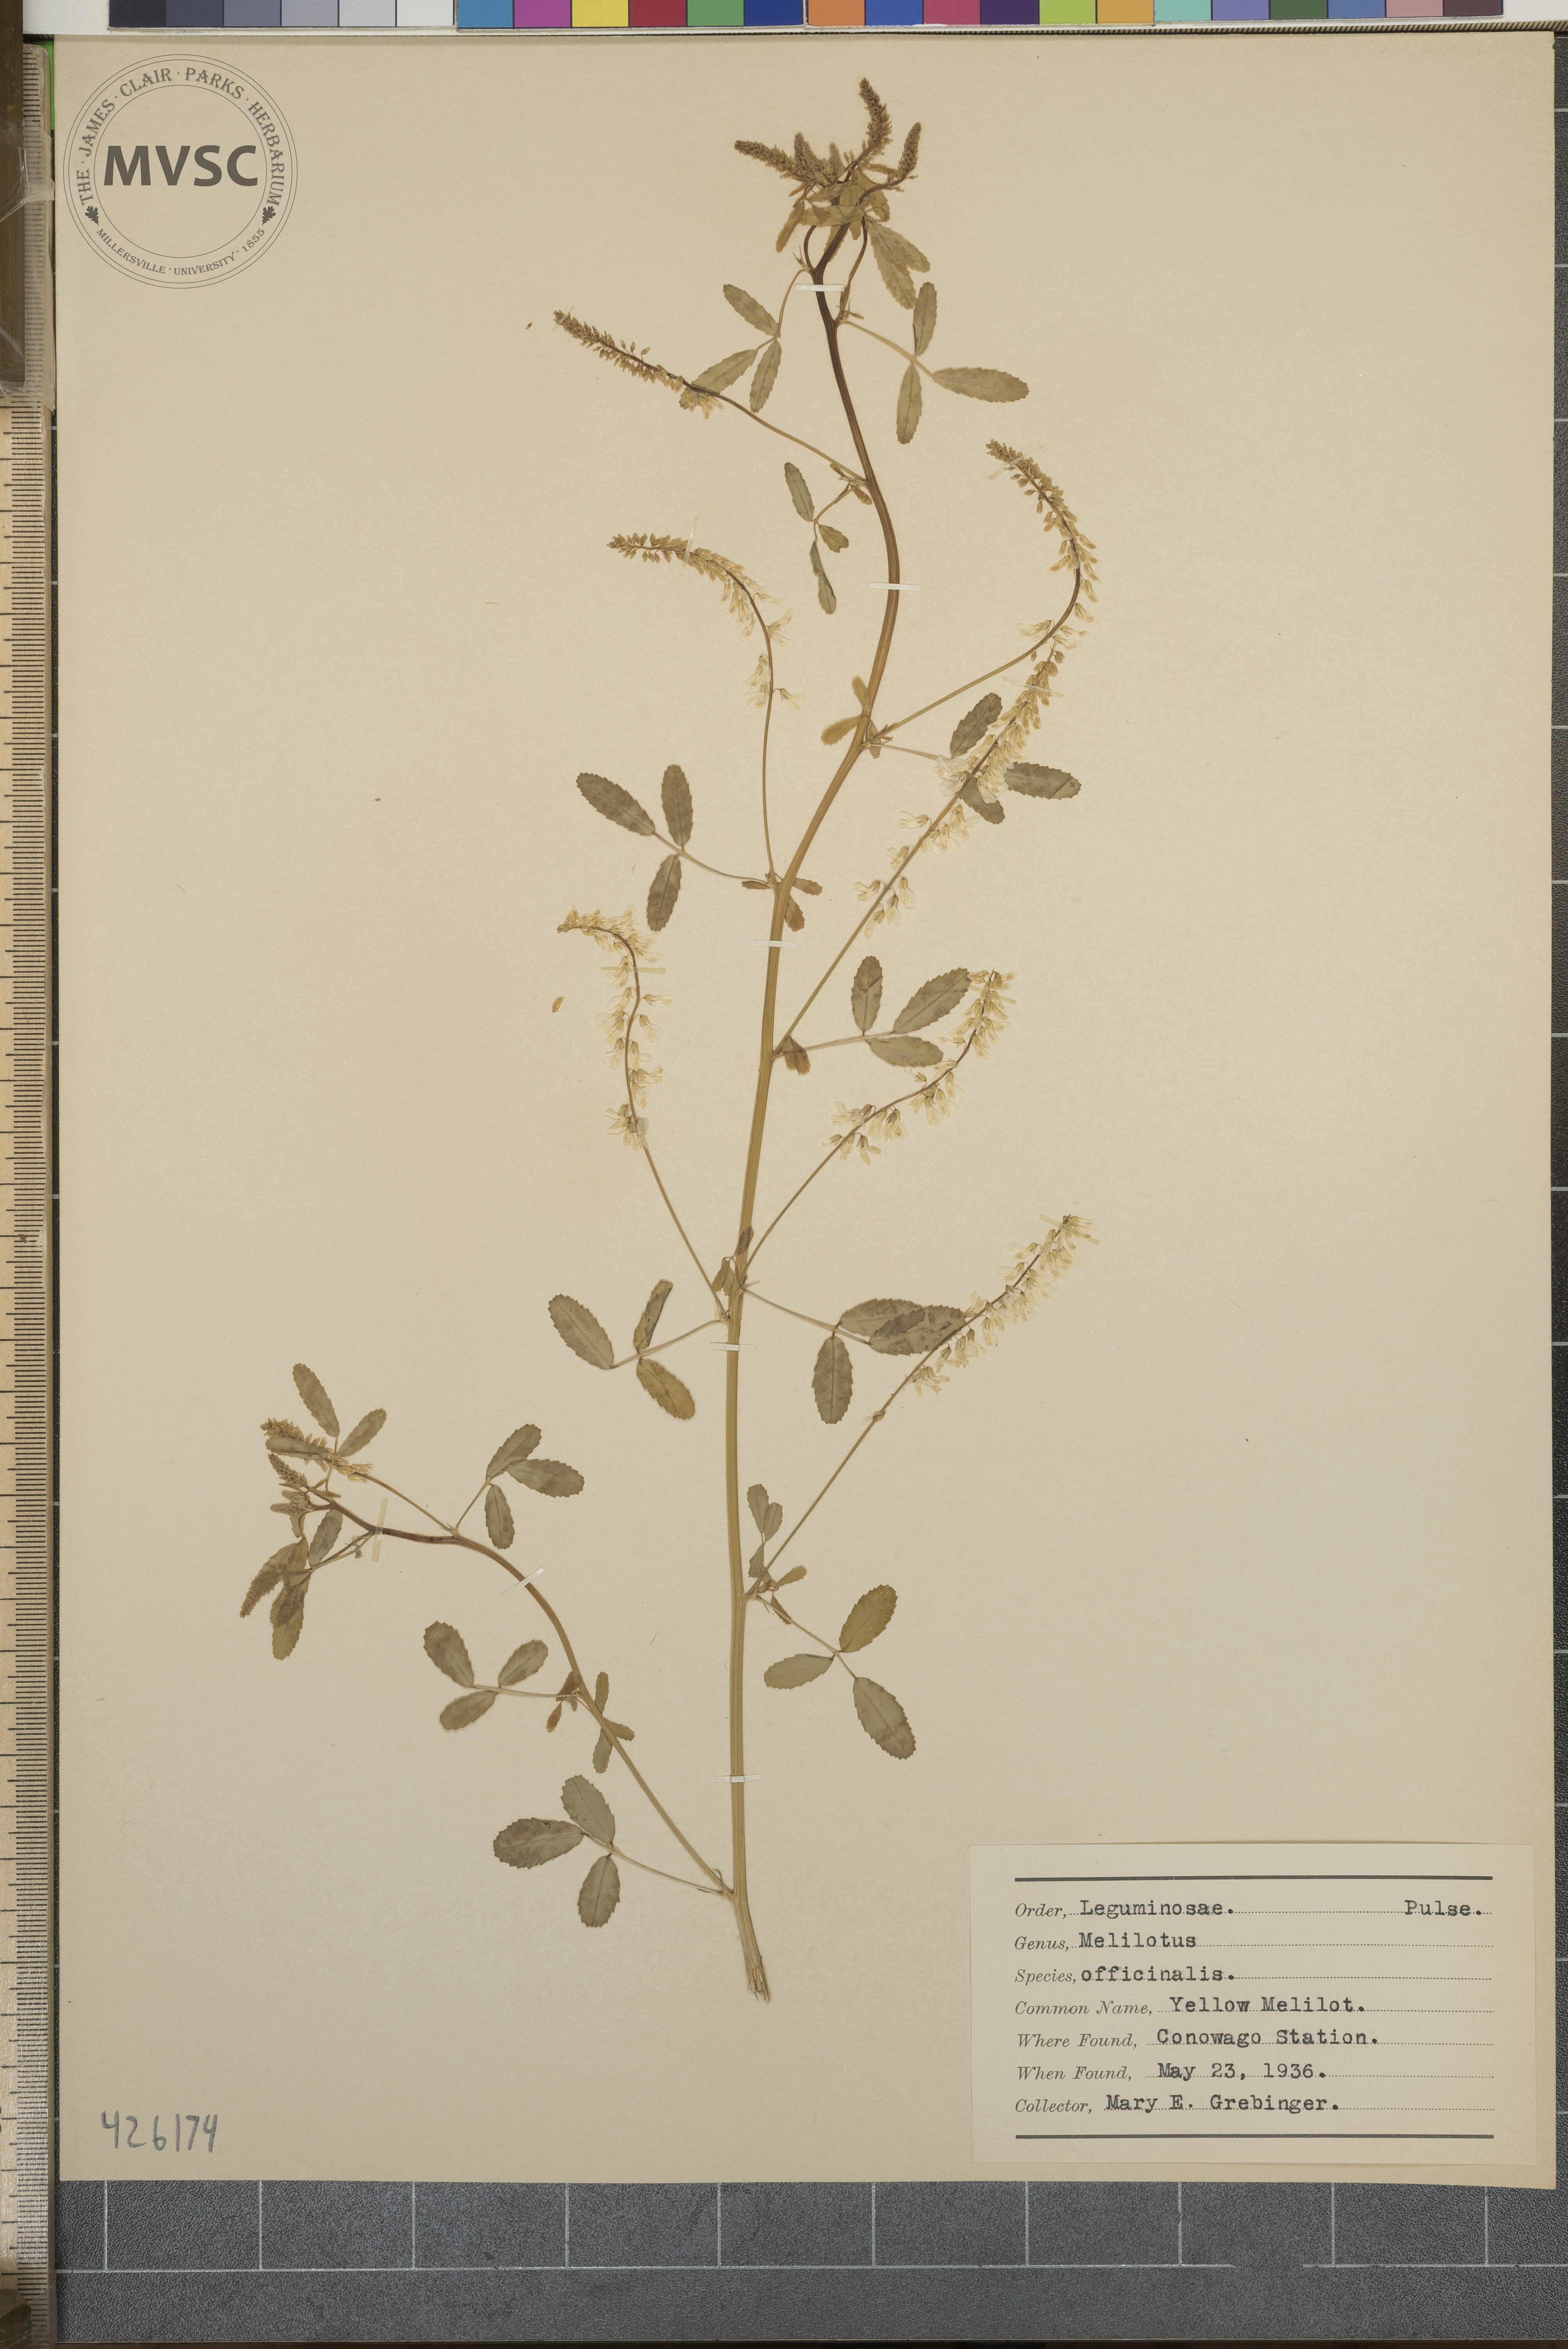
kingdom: Plantae
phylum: Tracheophyta
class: Magnoliopsida
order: Fabales
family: Fabaceae
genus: Melilotus
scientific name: Melilotus officinalis
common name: Yellow Melilot
